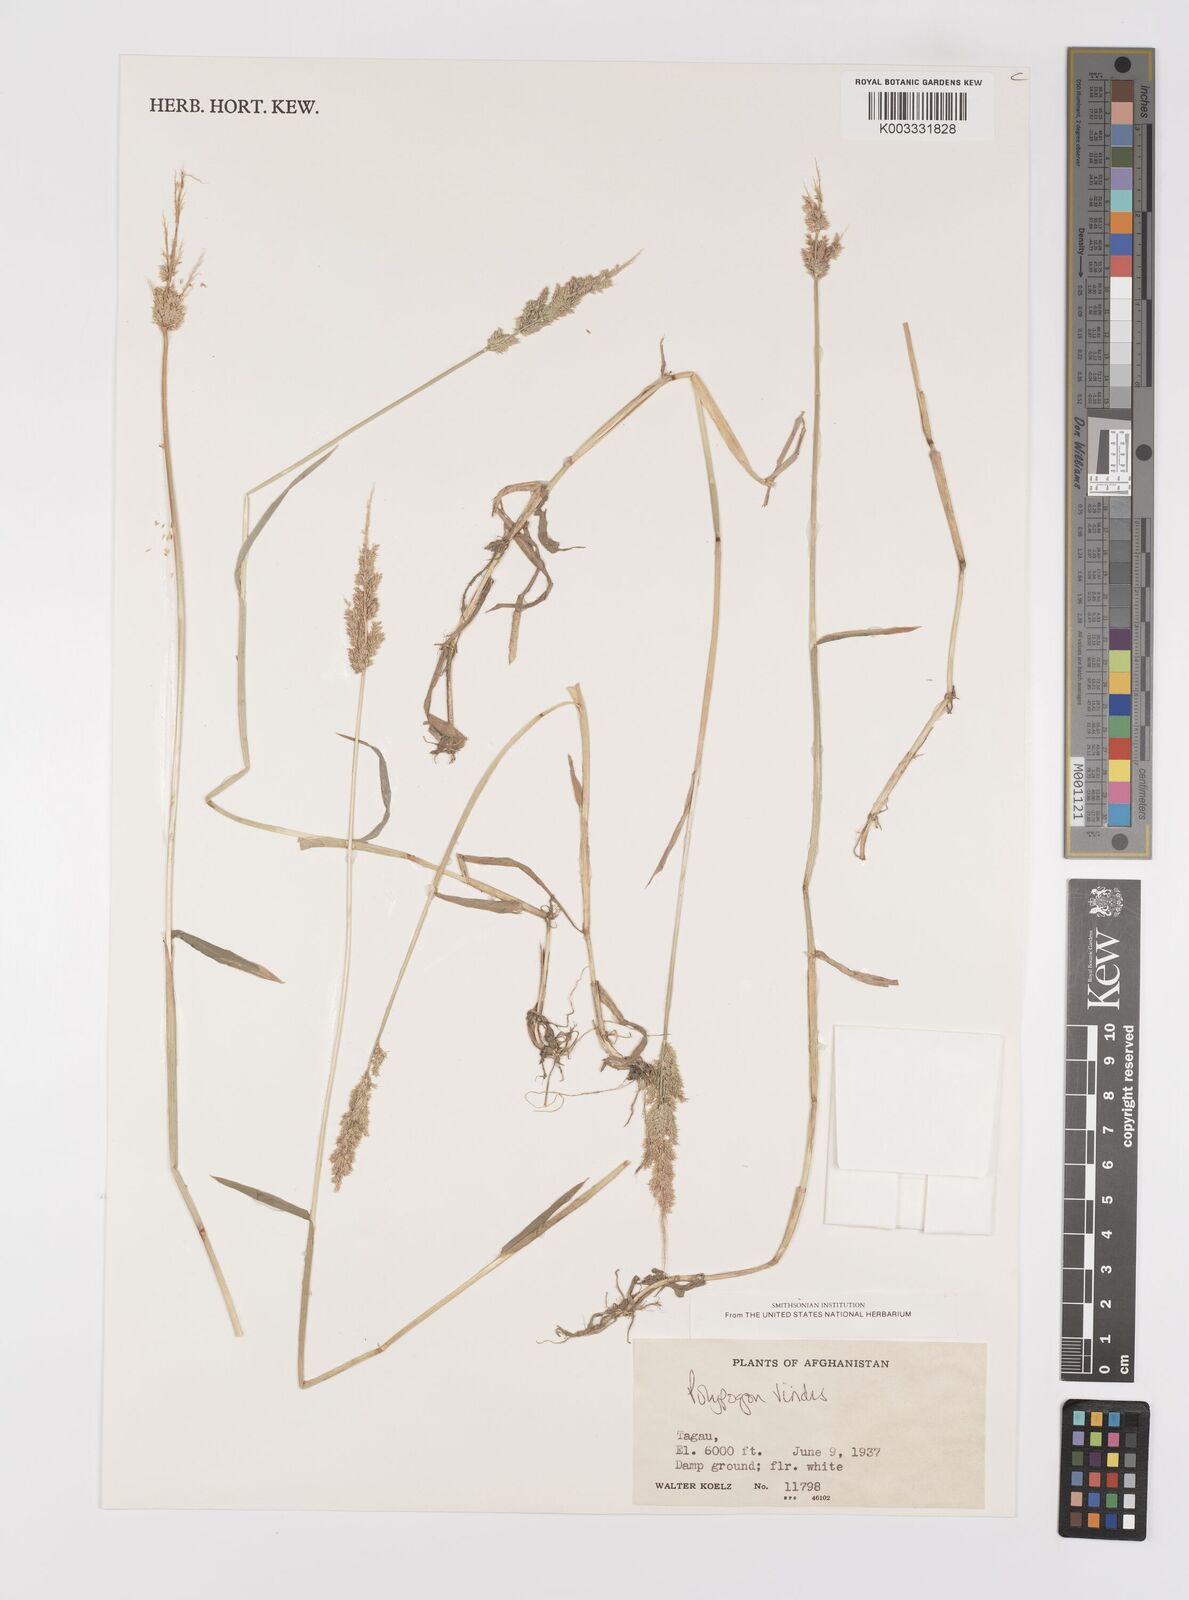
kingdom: Plantae
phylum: Tracheophyta
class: Liliopsida
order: Poales
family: Poaceae
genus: Polypogon
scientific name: Polypogon viridis
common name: Water bent
